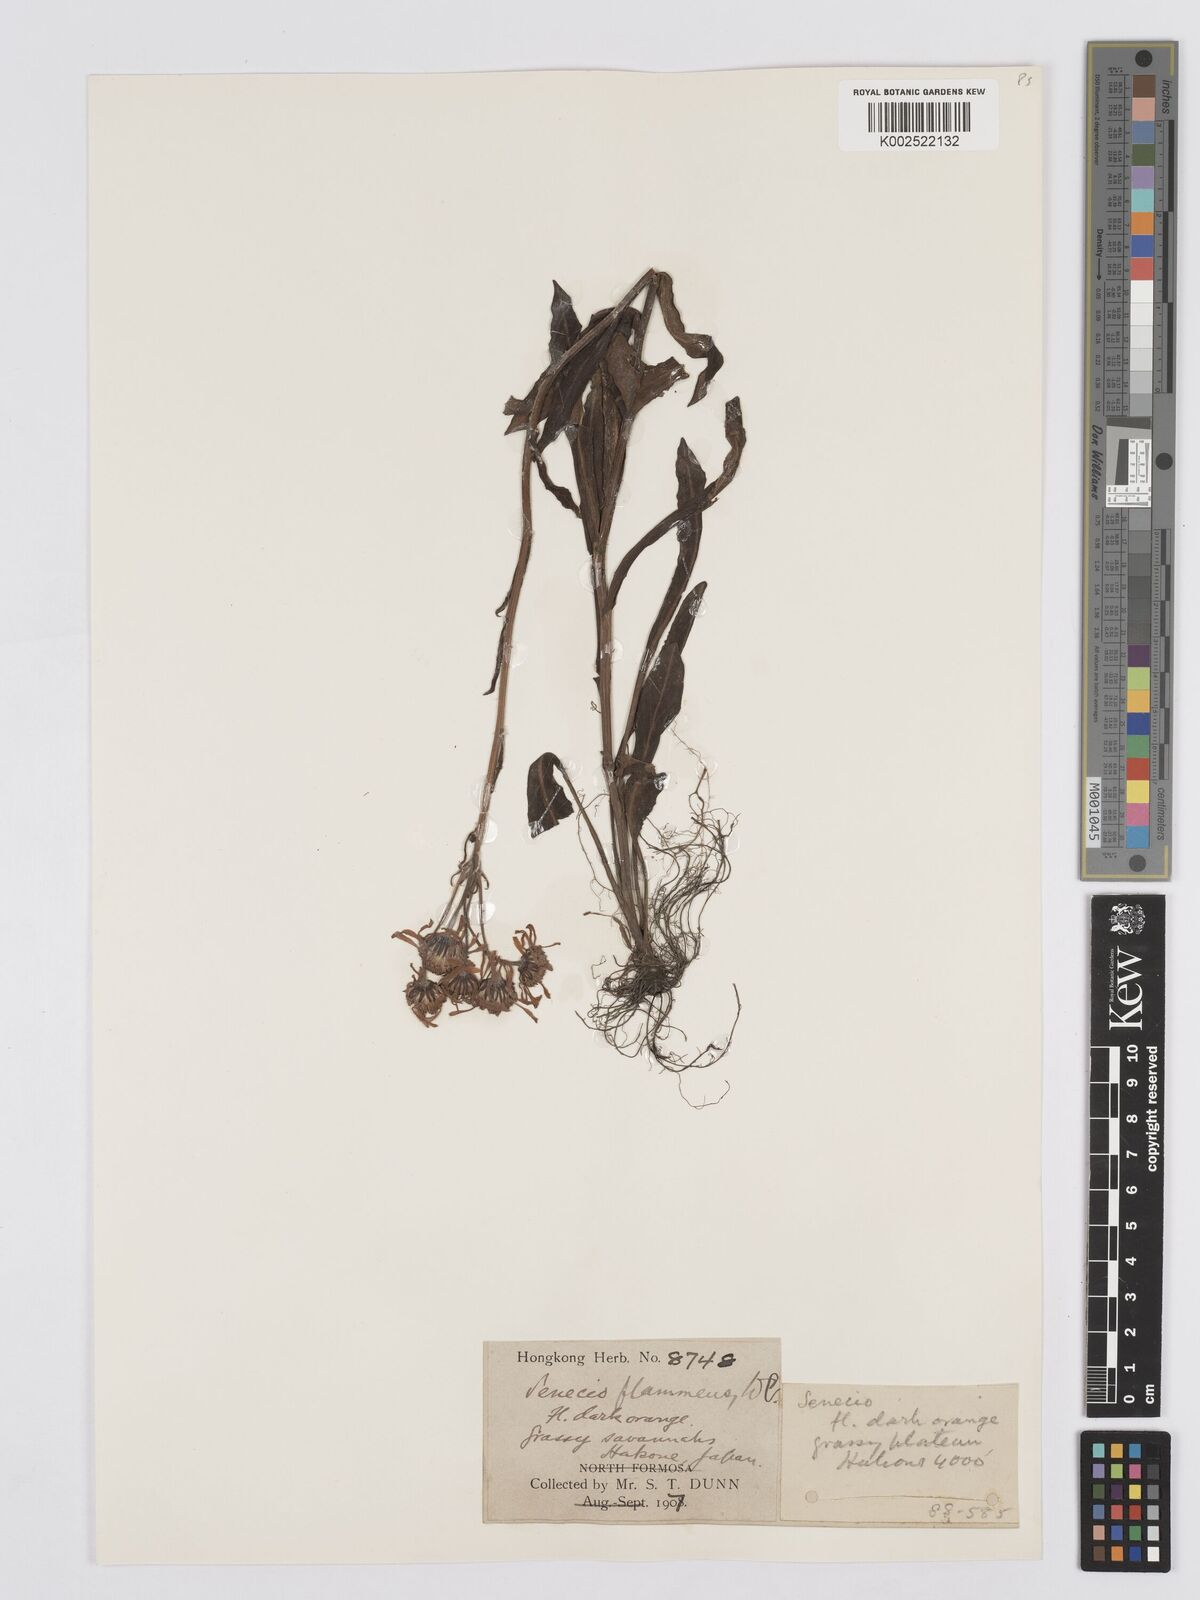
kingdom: Plantae
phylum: Tracheophyta
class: Magnoliopsida
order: Asterales
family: Asteraceae
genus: Tephroseris
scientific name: Tephroseris flammea
